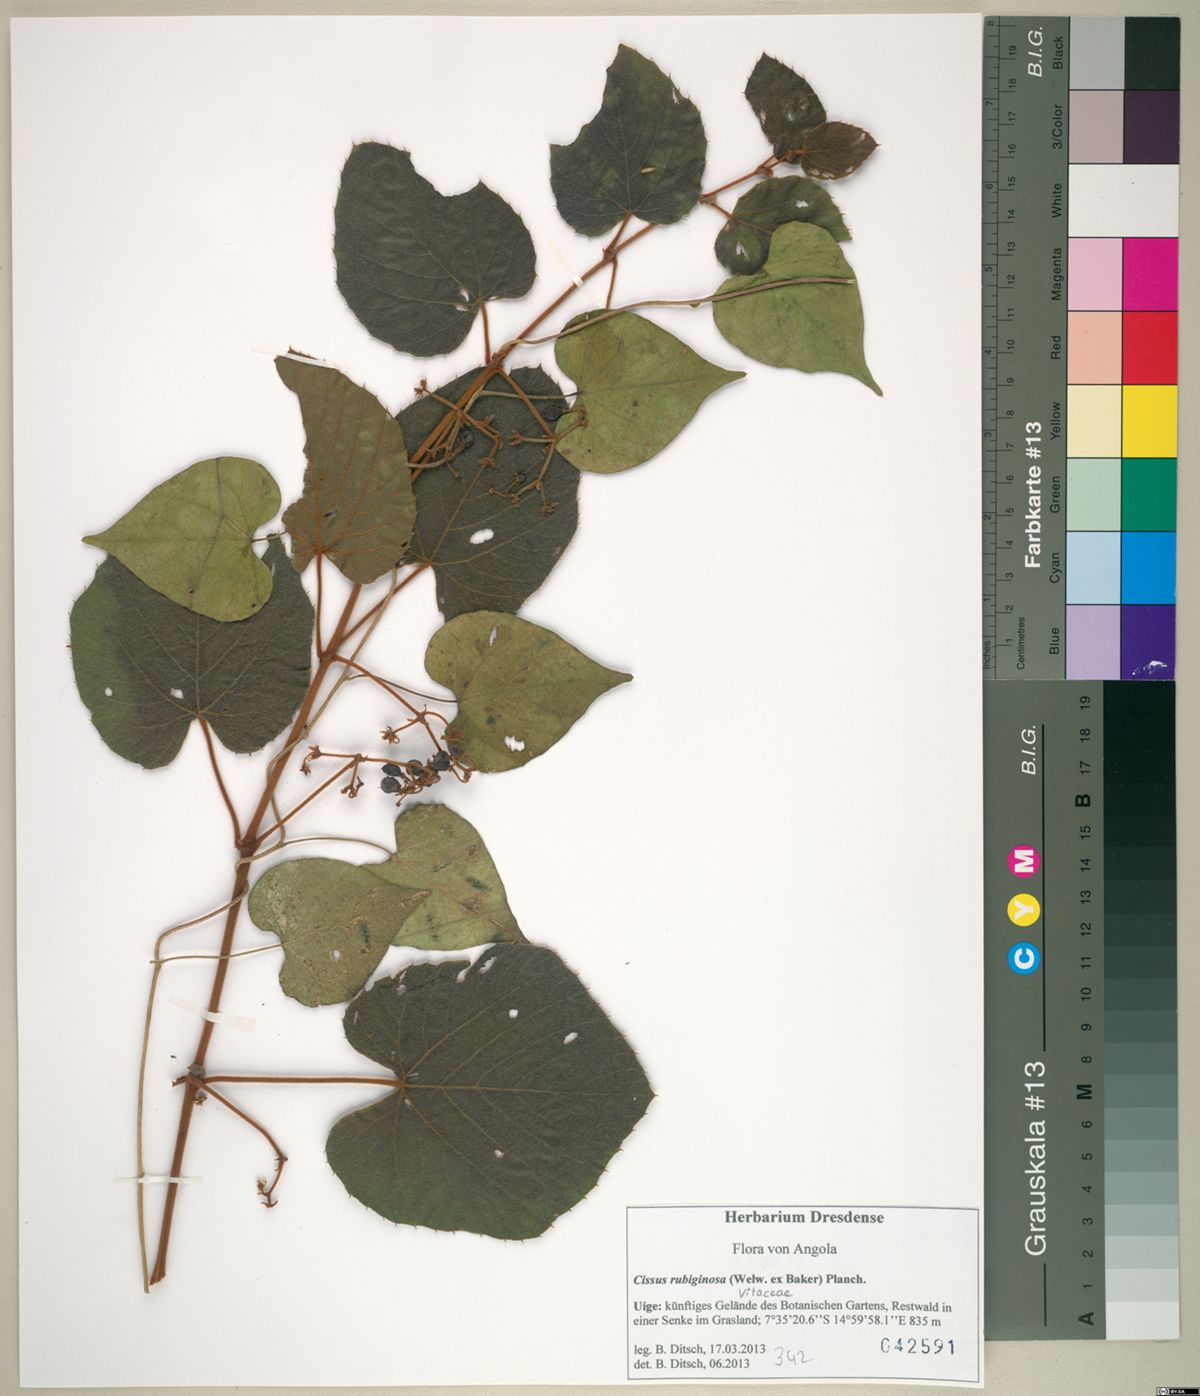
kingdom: Plantae
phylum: Tracheophyta
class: Magnoliopsida
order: Vitales
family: Vitaceae
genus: Cissus
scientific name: Cissus rubiginosa
